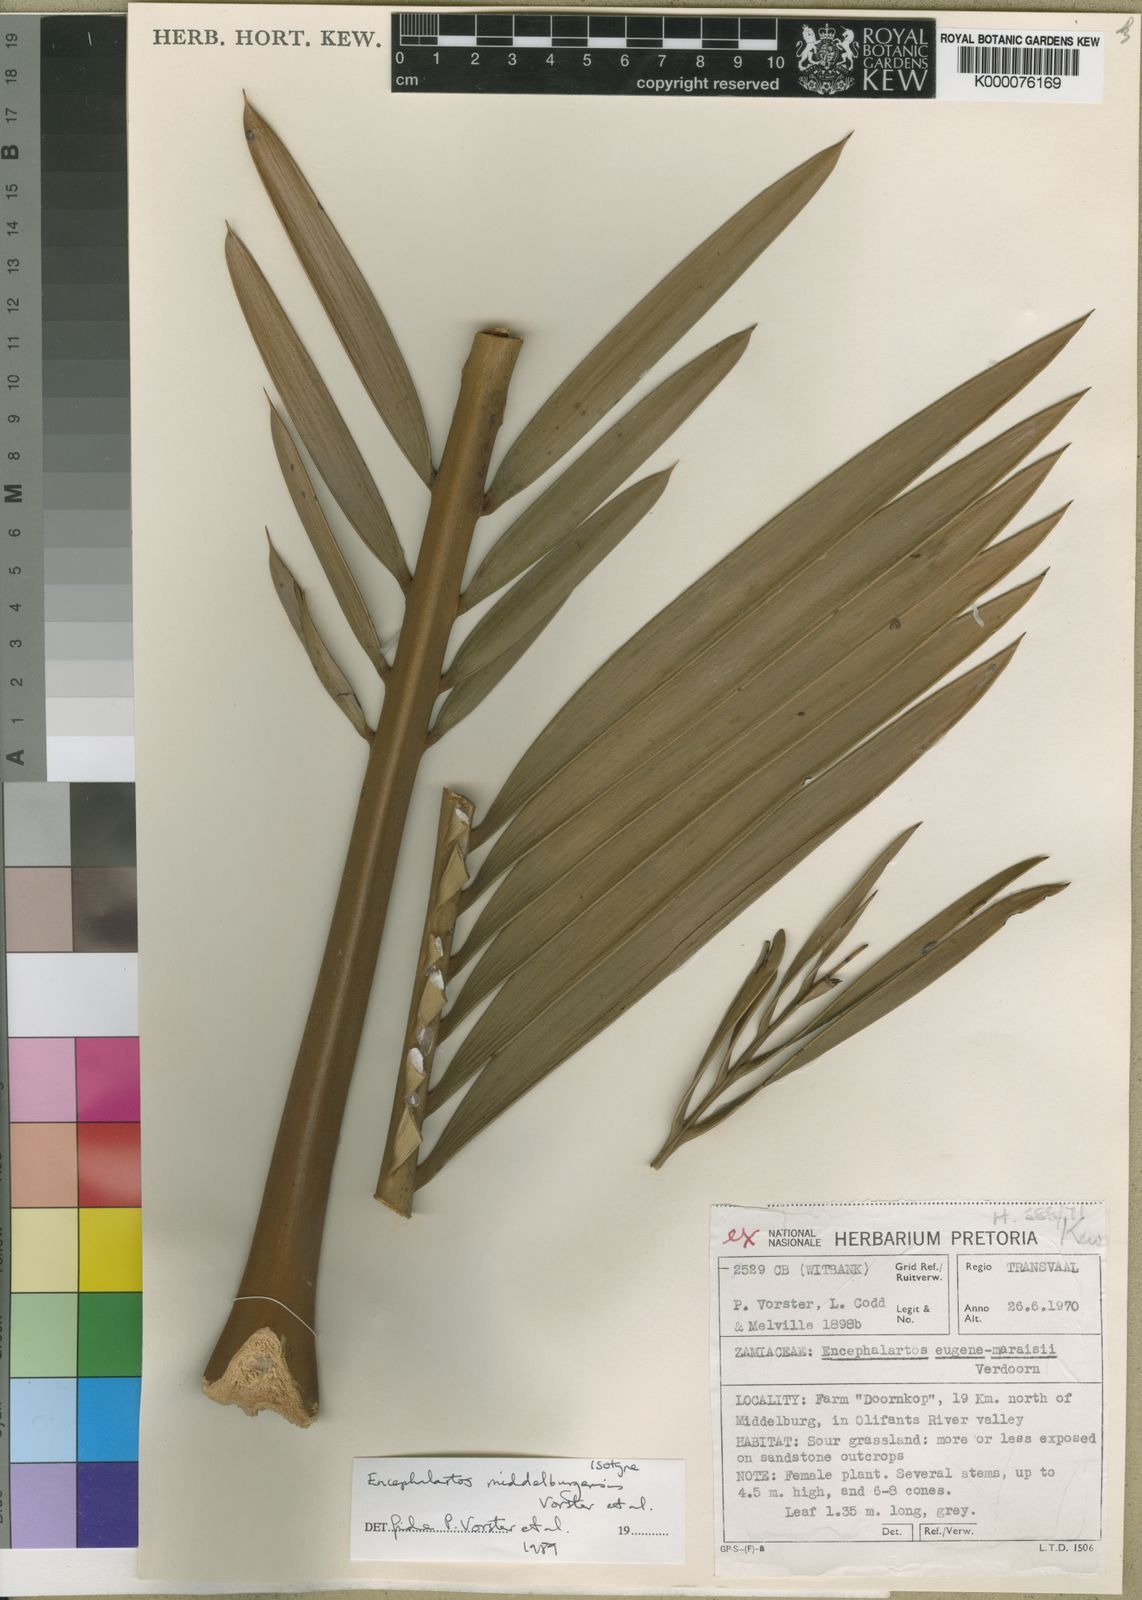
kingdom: Plantae
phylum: Tracheophyta
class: Cycadopsida
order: Cycadales
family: Zamiaceae
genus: Encephalartos
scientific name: Encephalartos middelburgensis
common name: Middelburg cycad
